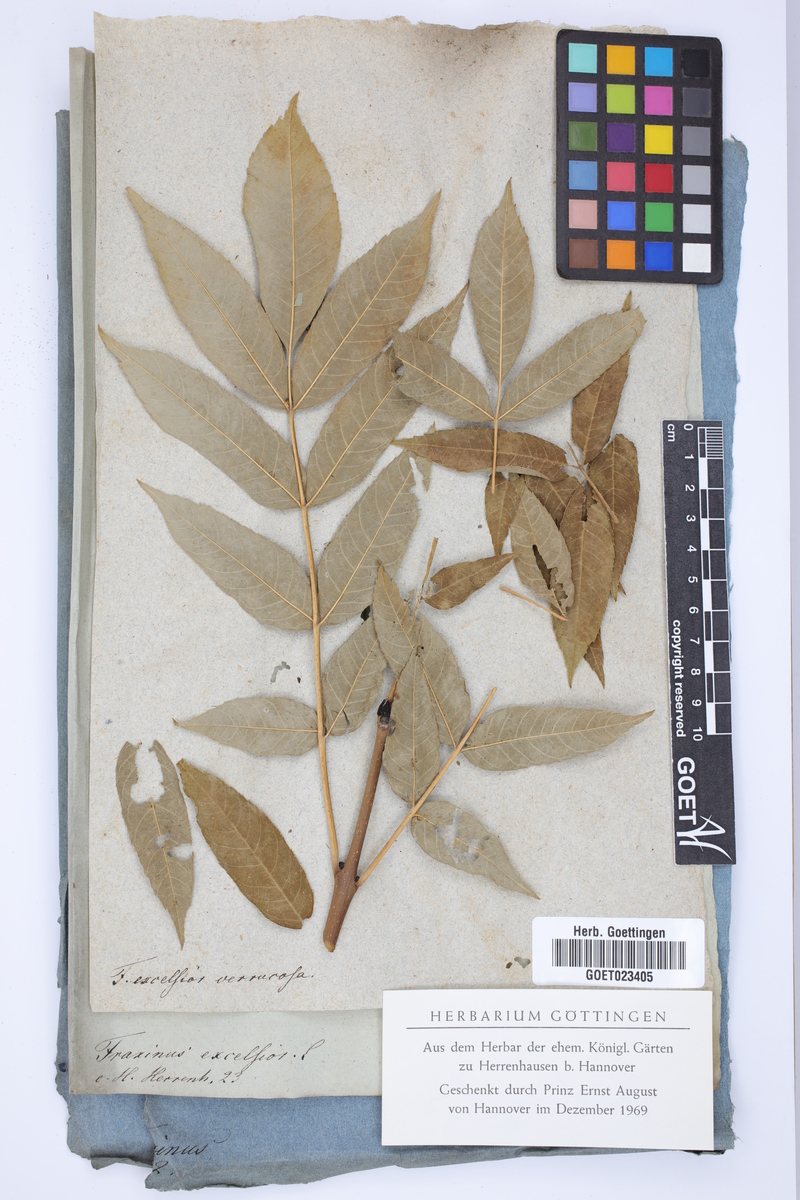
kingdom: Plantae
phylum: Tracheophyta
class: Magnoliopsida
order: Lamiales
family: Oleaceae
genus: Fraxinus
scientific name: Fraxinus excelsior
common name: European ash
